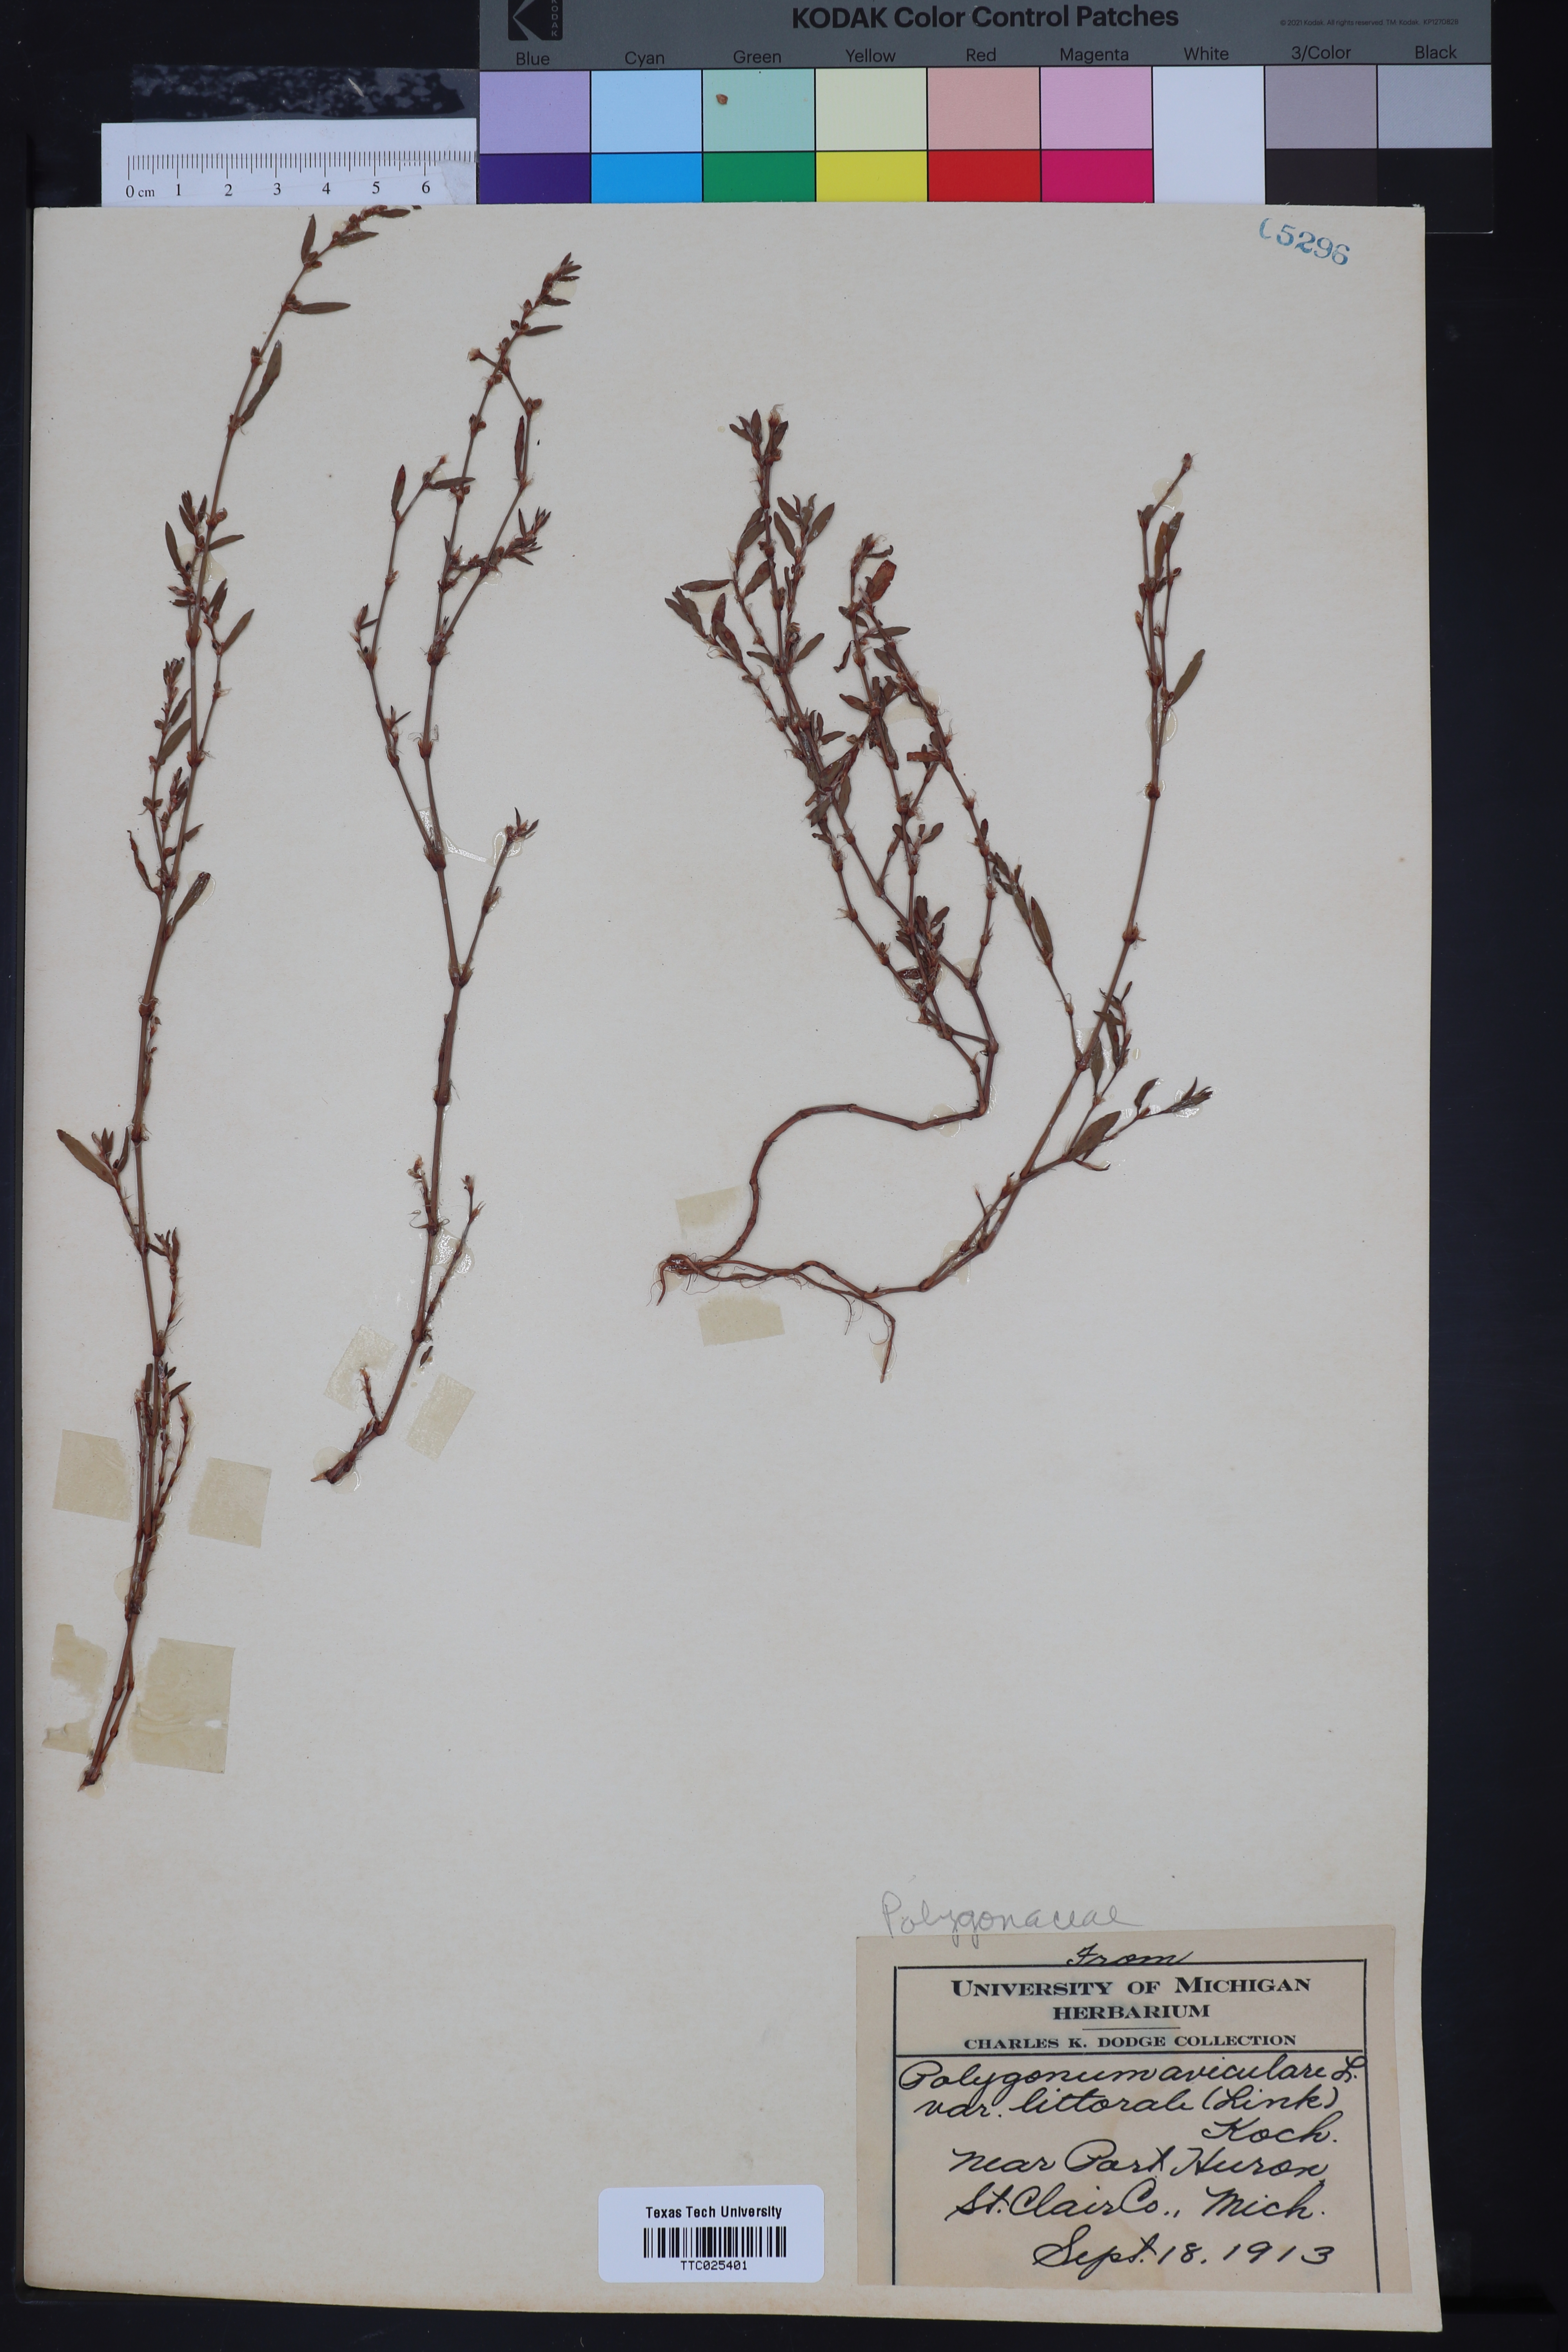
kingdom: Plantae
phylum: Tracheophyta
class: Magnoliopsida
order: Caryophyllales
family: Polygonaceae
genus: Polygonum
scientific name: Polygonum aviculare
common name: Prostrate knotweed
